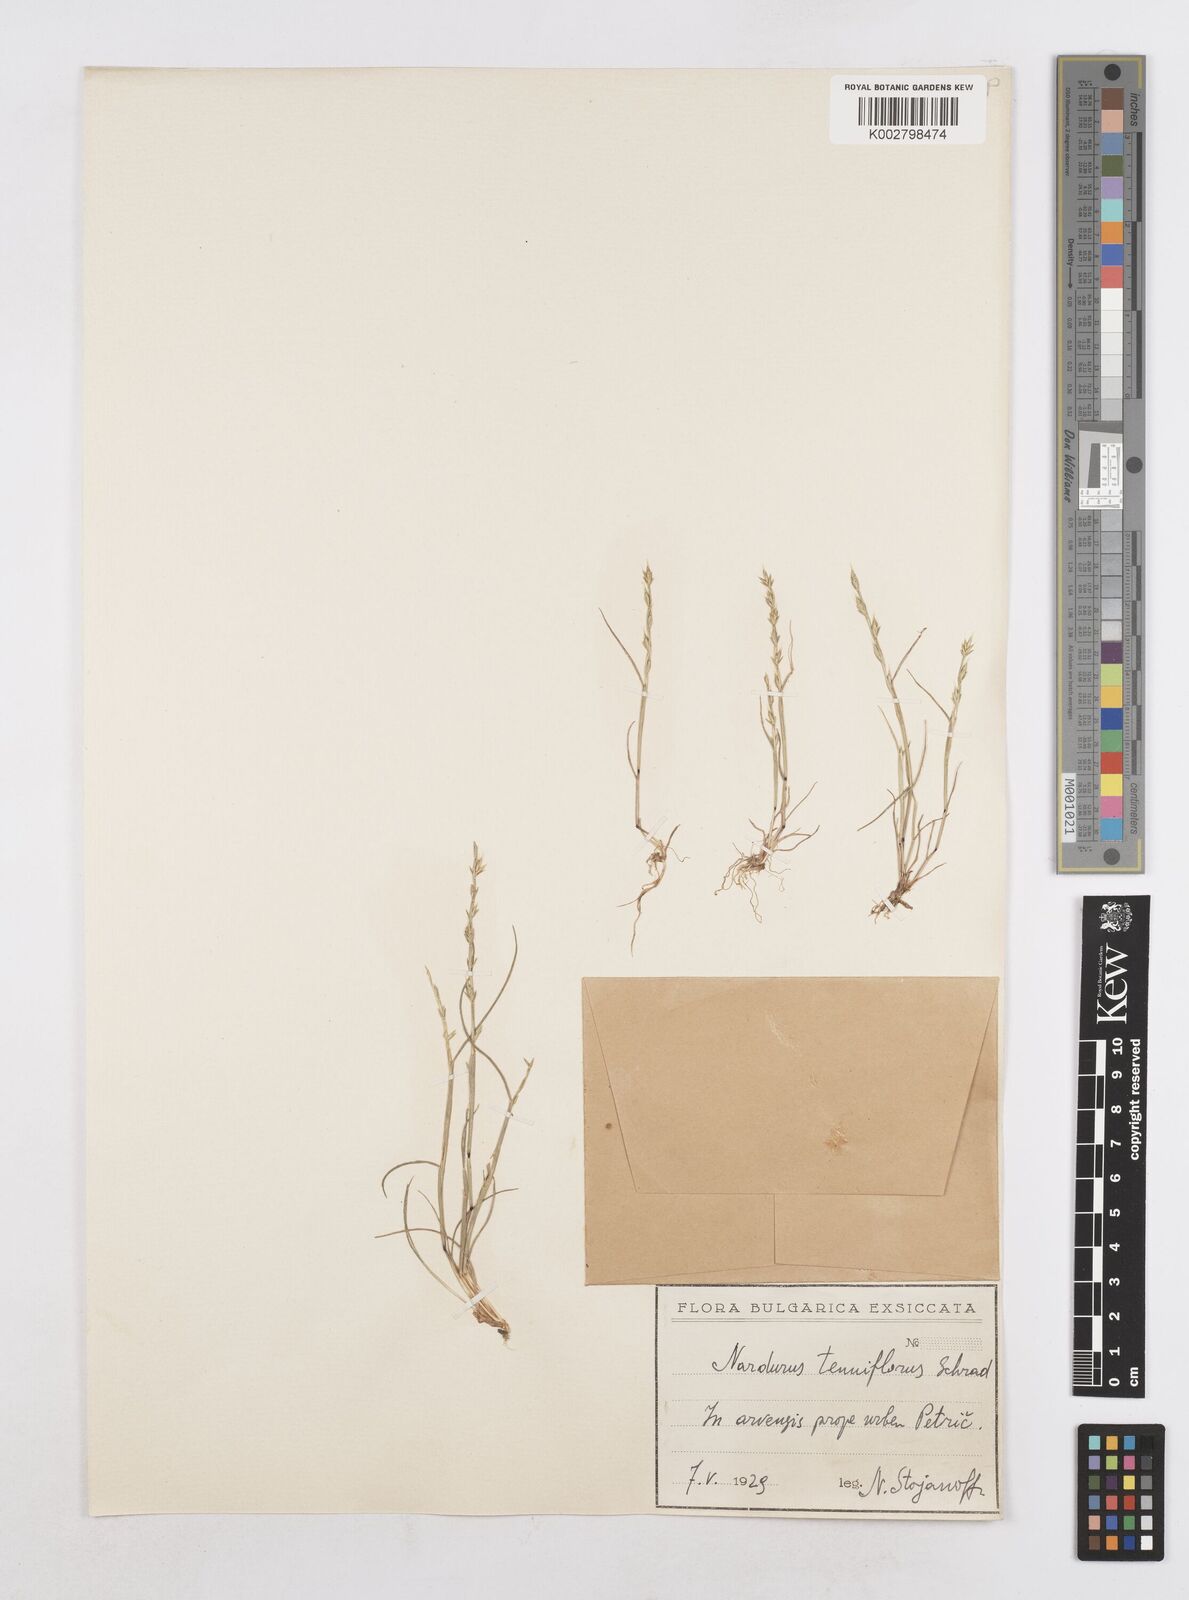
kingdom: Plantae
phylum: Tracheophyta
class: Liliopsida
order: Poales
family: Poaceae
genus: Festuca
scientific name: Festuca lachenalii
